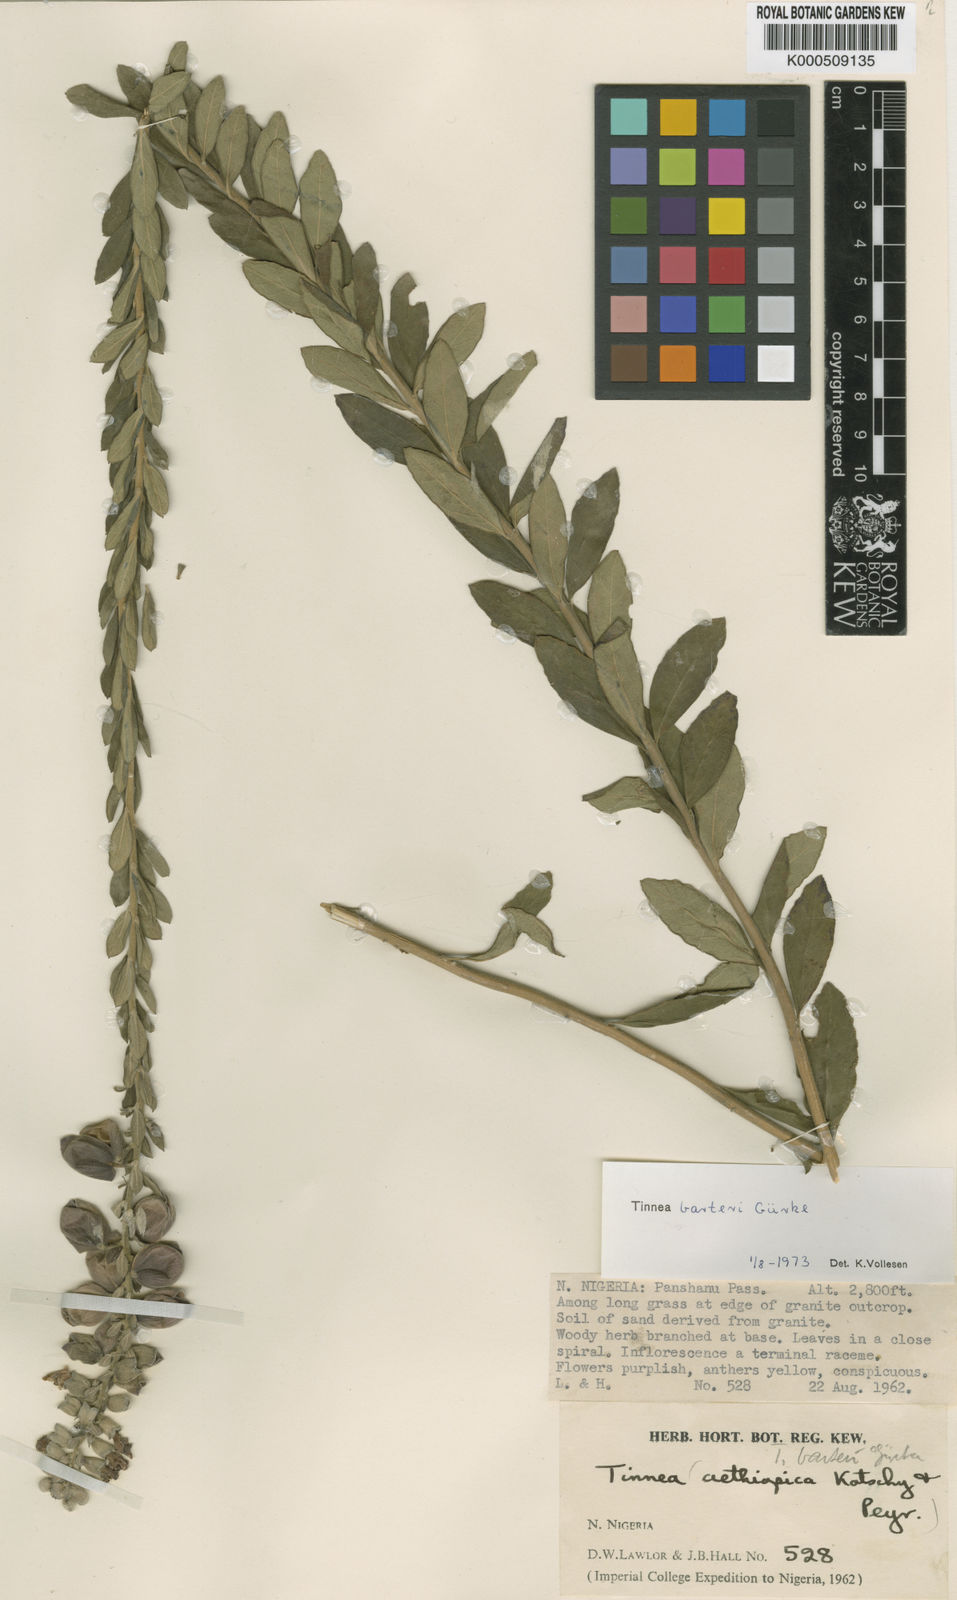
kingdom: Plantae
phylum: Tracheophyta
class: Magnoliopsida
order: Lamiales
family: Lamiaceae
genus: Tinnea
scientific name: Tinnea
